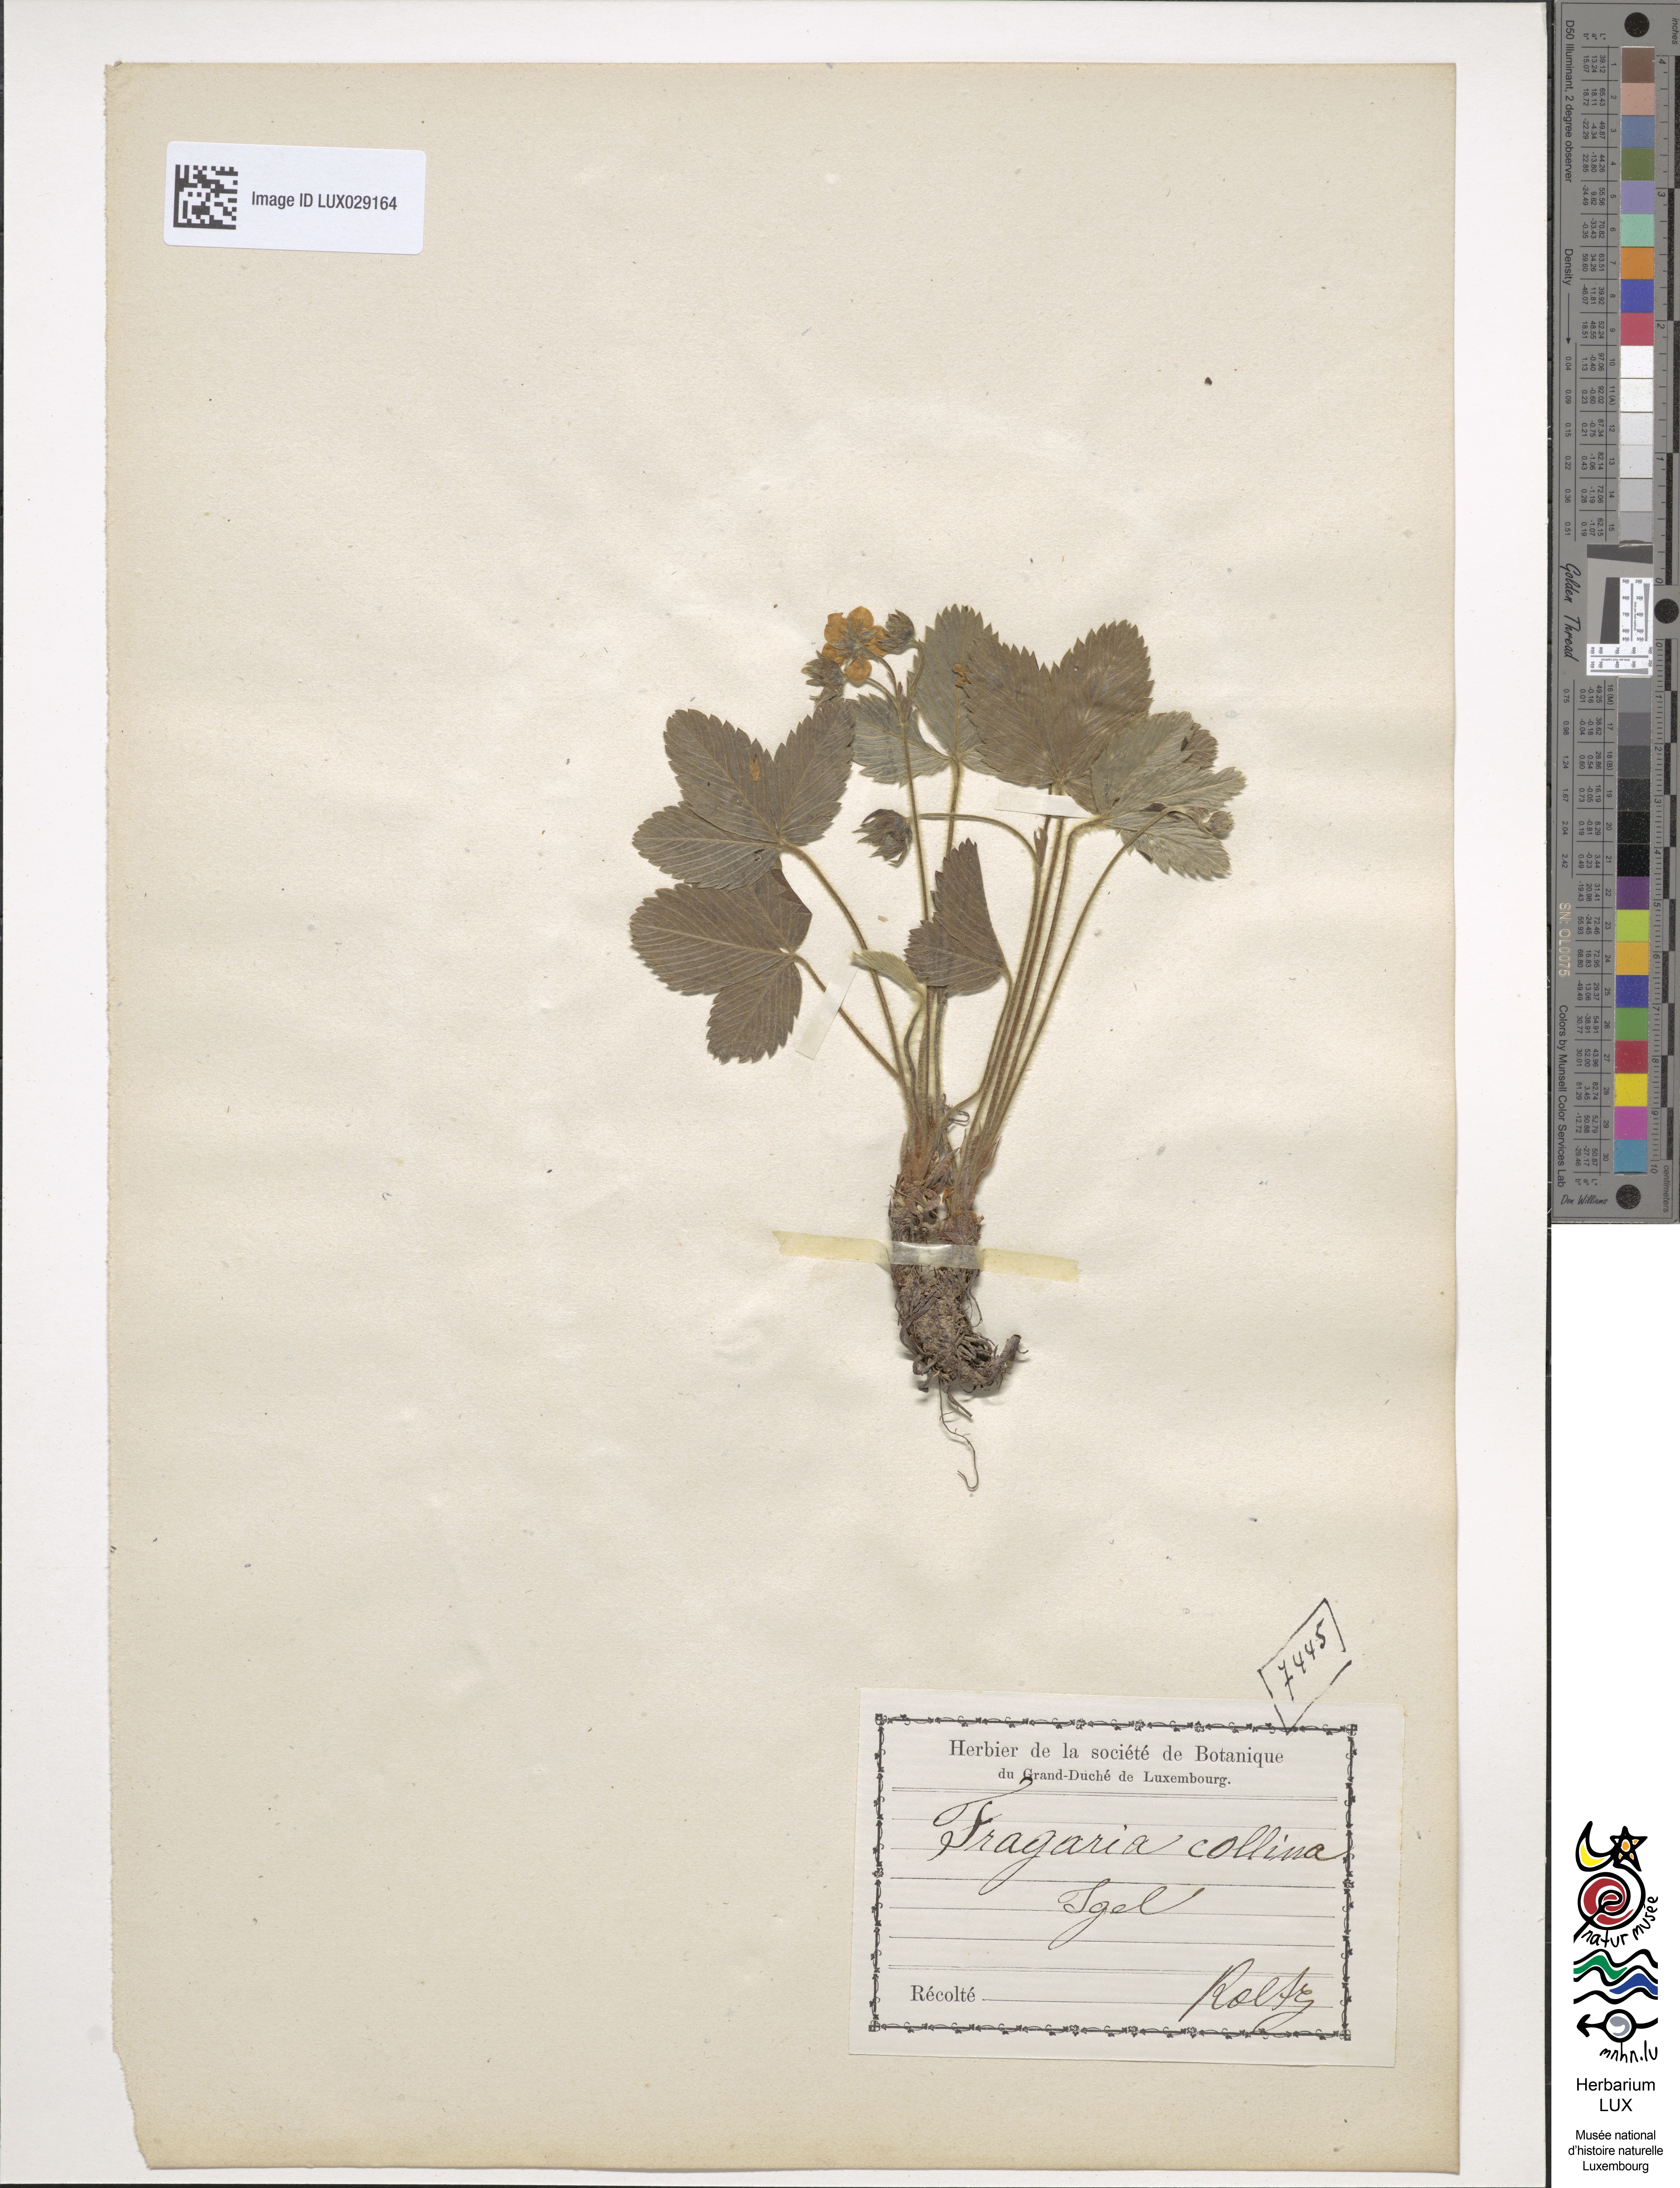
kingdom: Plantae
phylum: Tracheophyta
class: Magnoliopsida
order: Rosales
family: Rosaceae
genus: Fragaria
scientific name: Fragaria viridis
